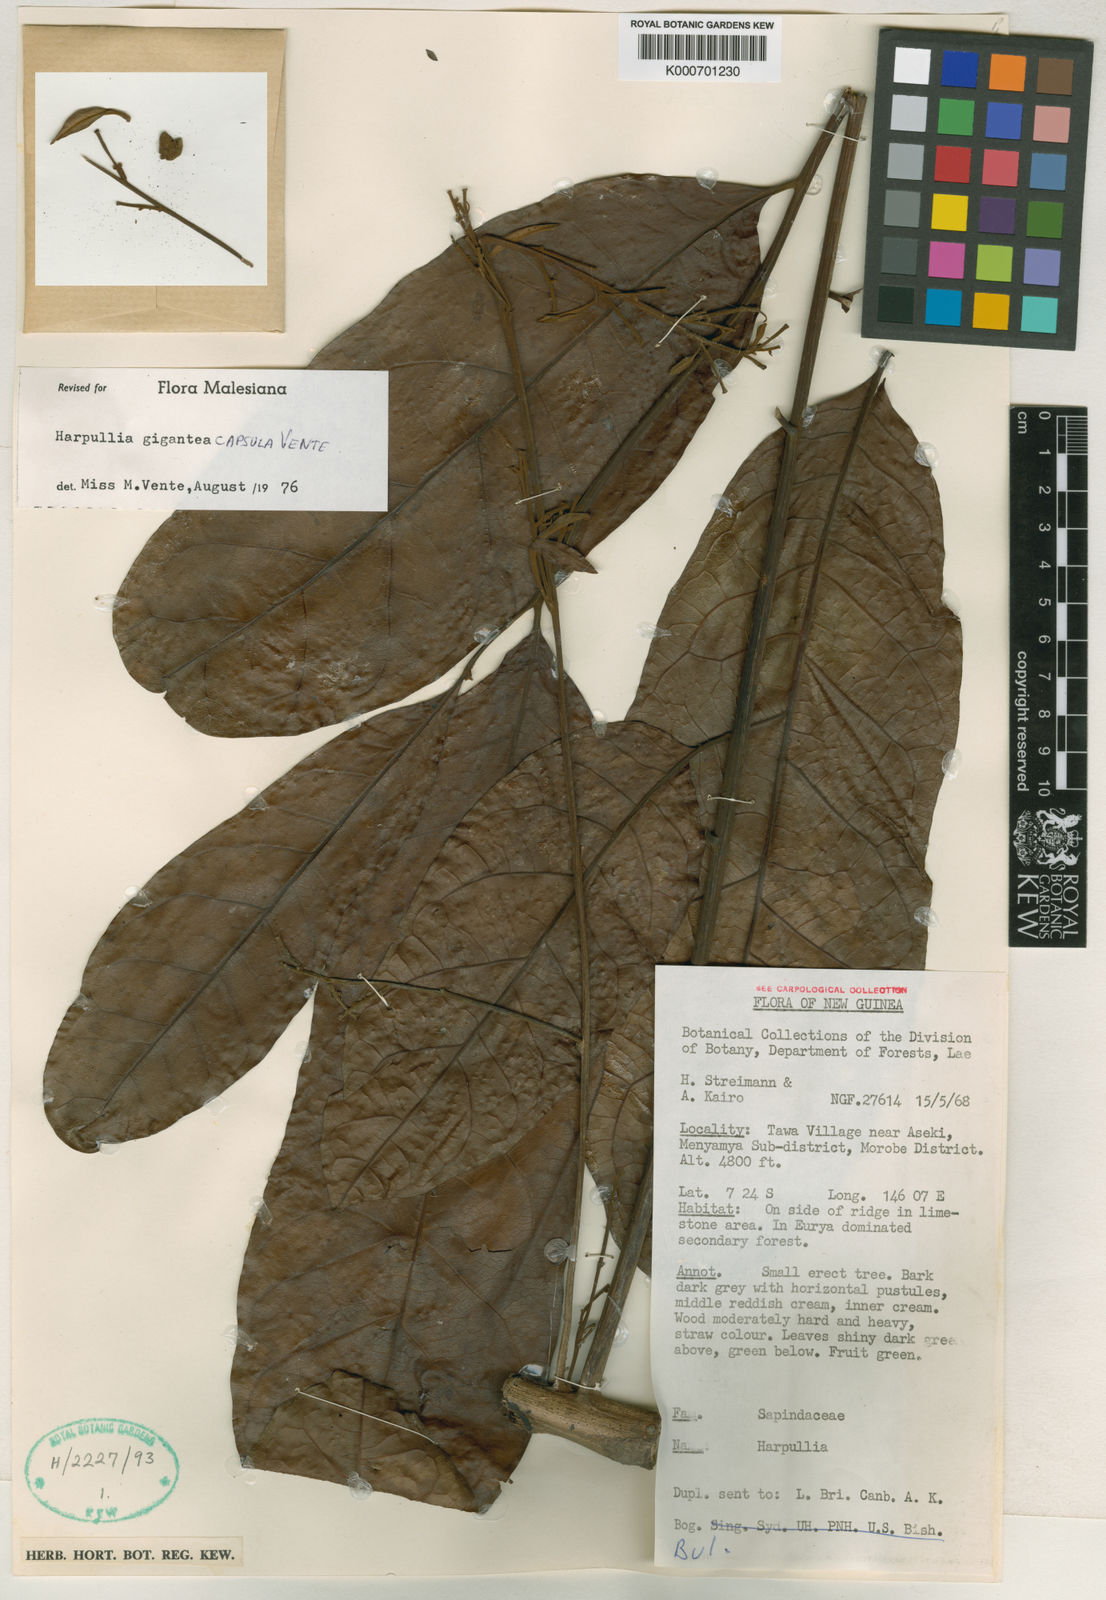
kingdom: Plantae
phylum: Tracheophyta
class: Magnoliopsida
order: Sapindales
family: Sapindaceae
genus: Harpullia
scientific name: Harpullia giganteacapsula
